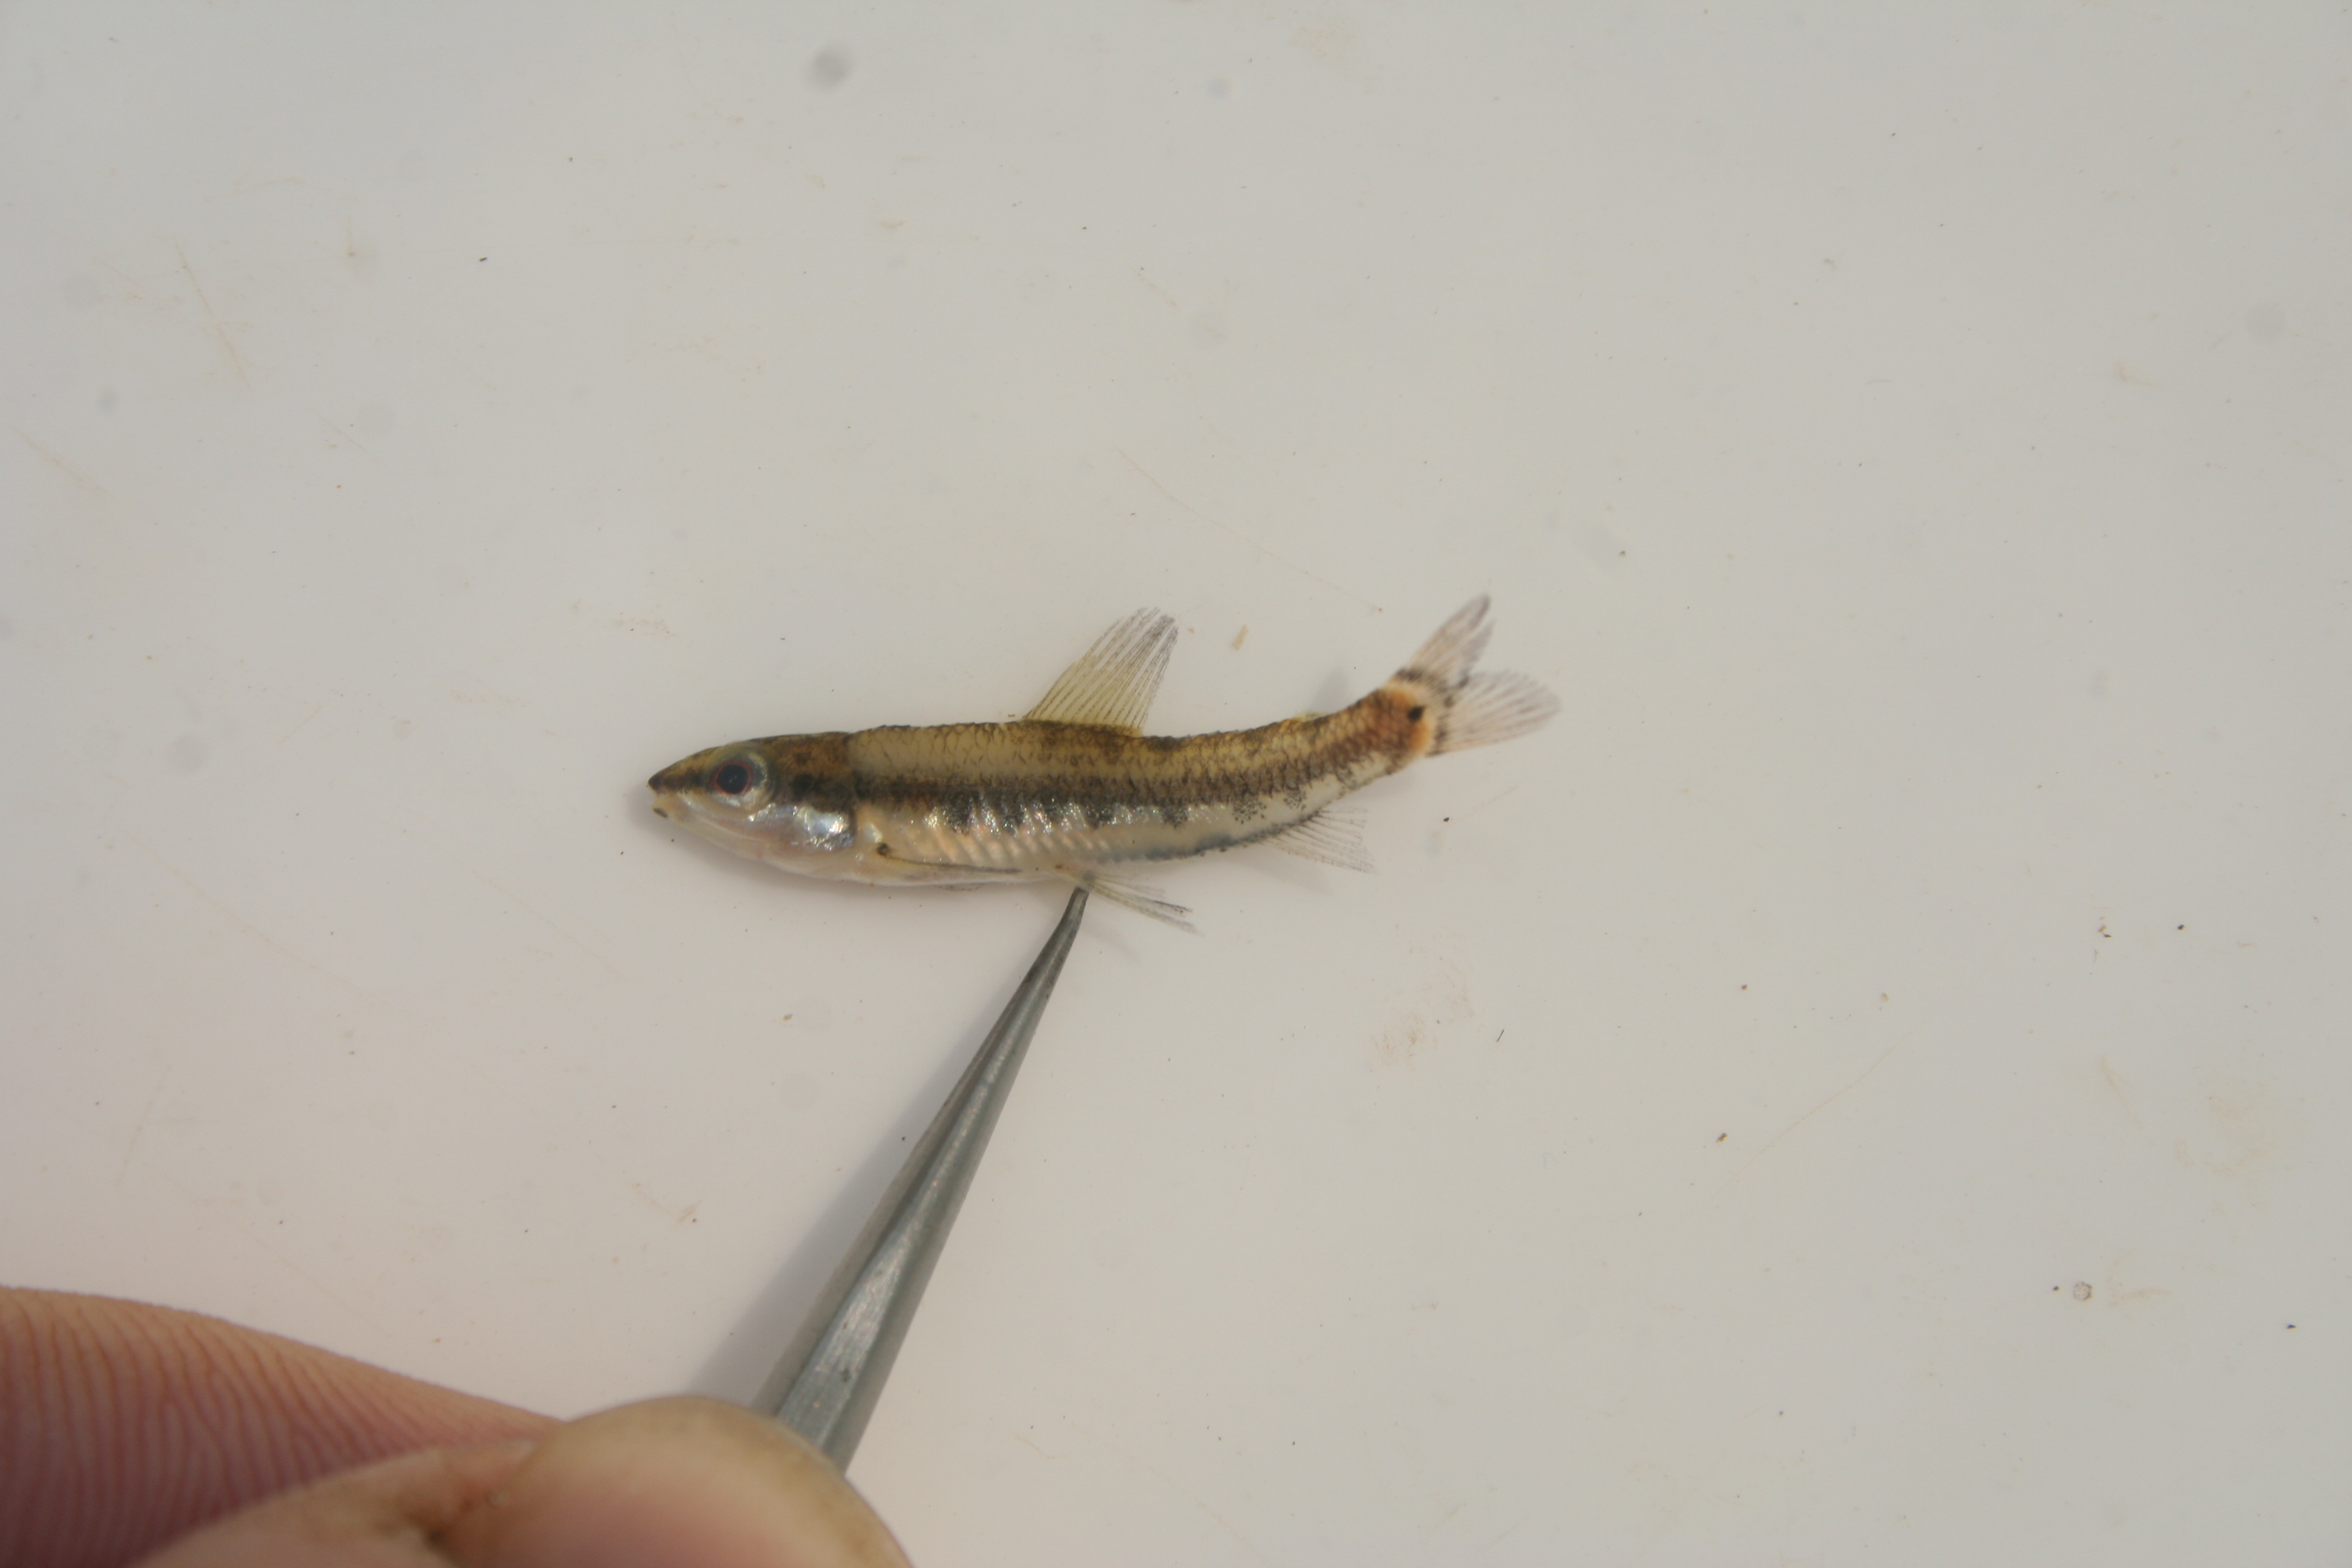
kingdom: Animalia
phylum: Chordata
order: Characiformes
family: Distichodontidae
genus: Nannocharax
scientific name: Nannocharax
